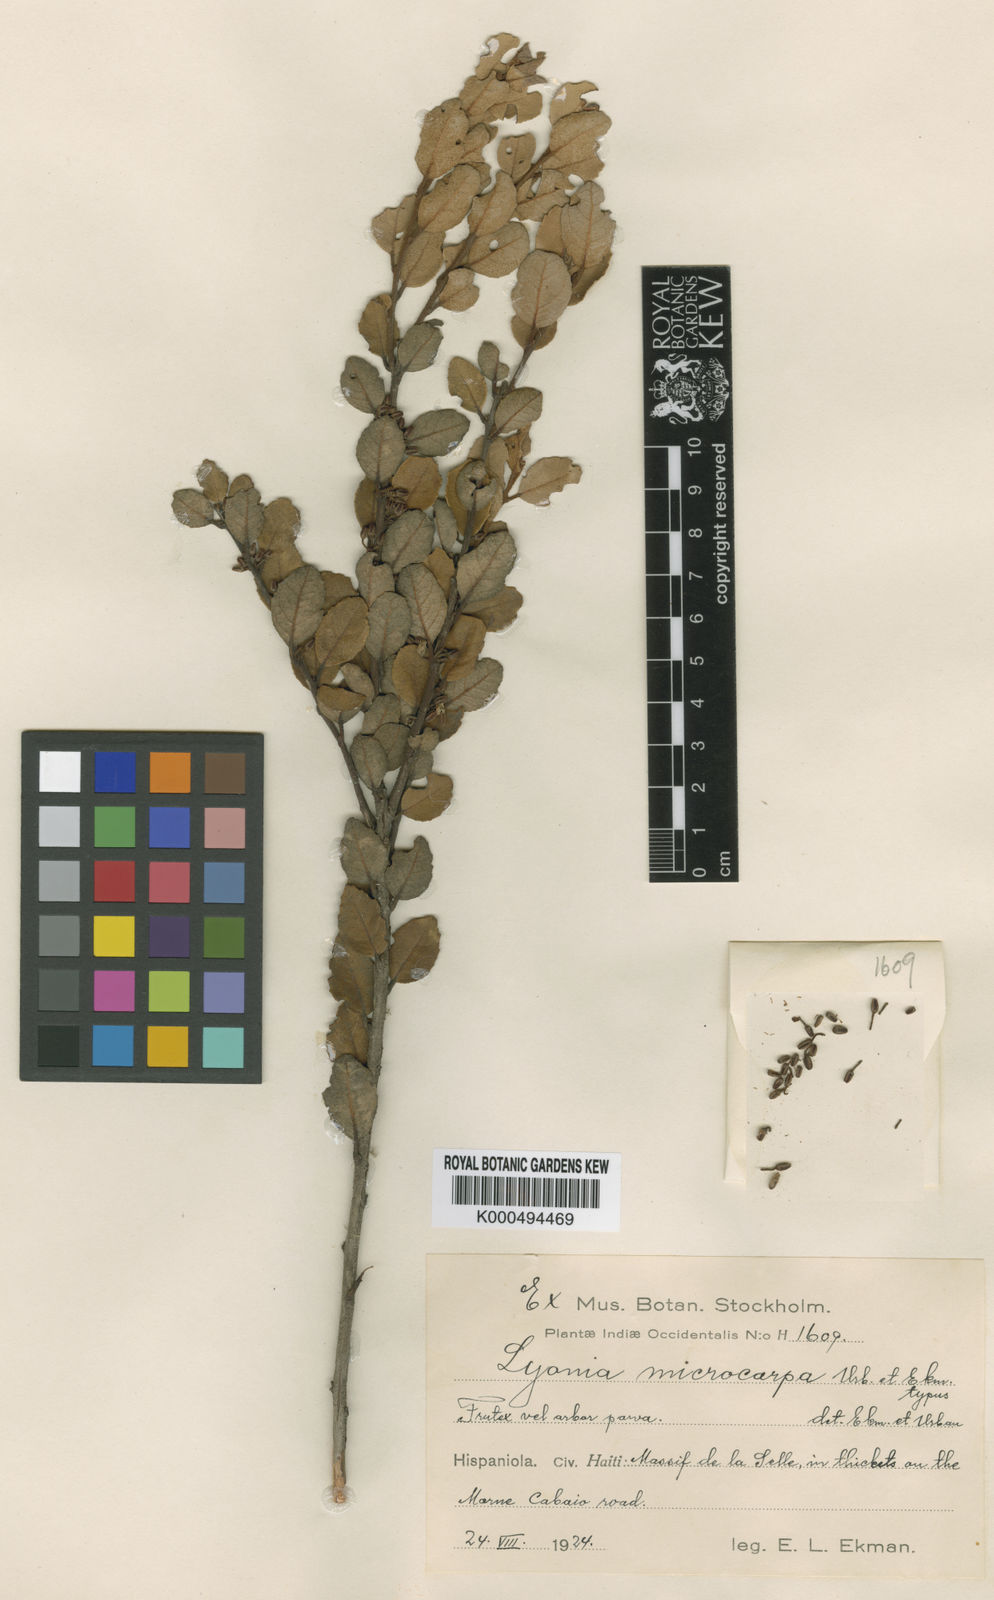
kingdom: Plantae
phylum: Tracheophyta
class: Magnoliopsida
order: Ericales
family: Ericaceae
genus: Lyonia
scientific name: Lyonia microcarpa
